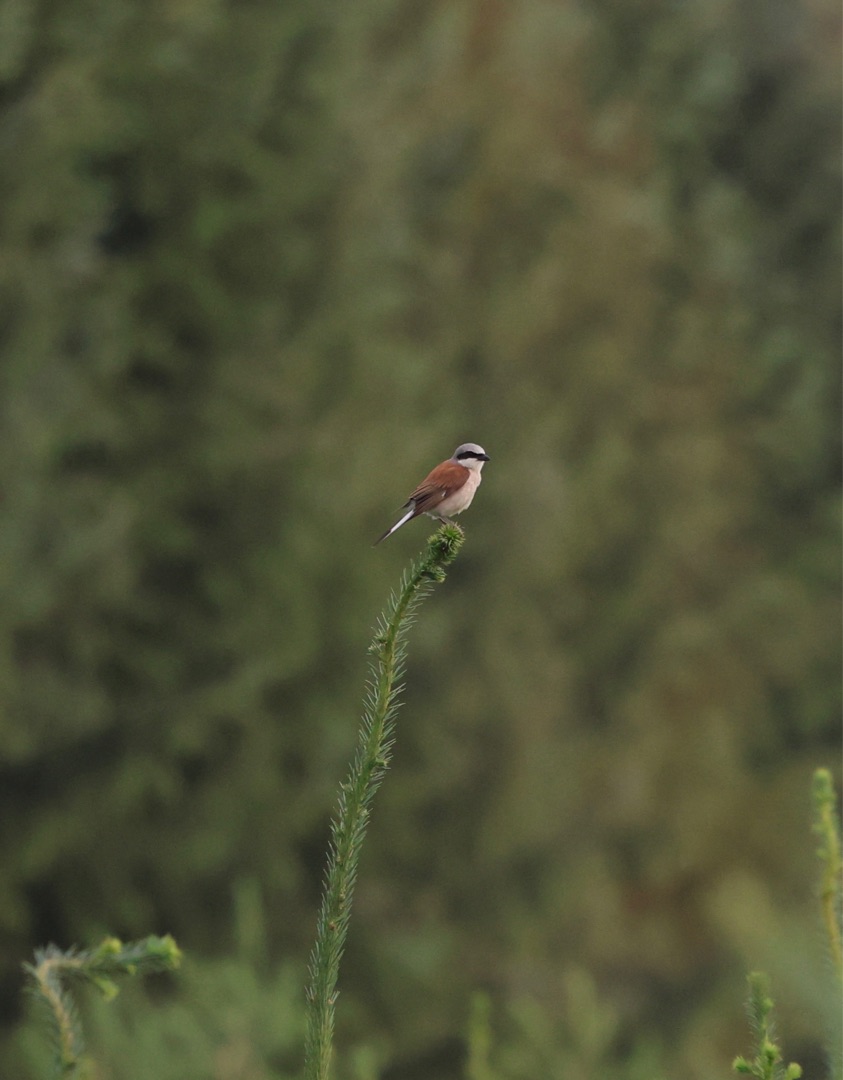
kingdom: Animalia
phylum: Chordata
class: Aves
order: Passeriformes
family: Laniidae
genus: Lanius
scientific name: Lanius collurio
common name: Rødrygget tornskade
